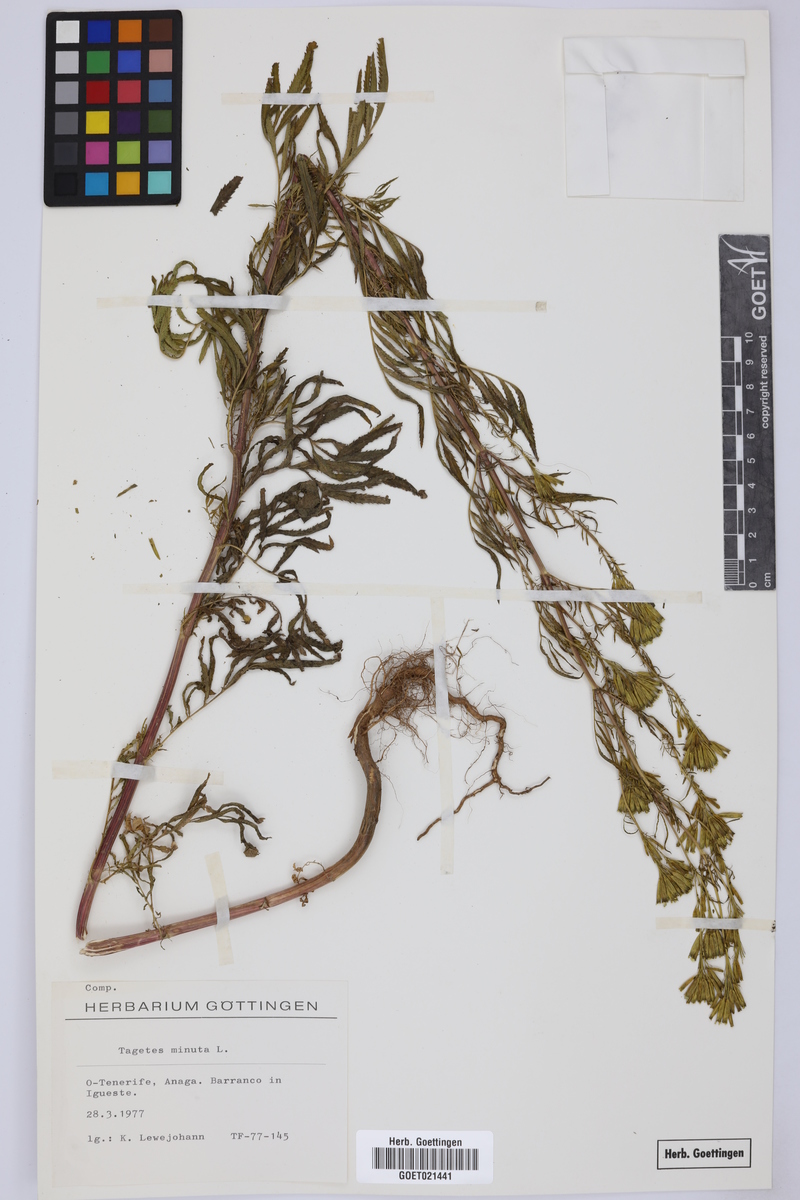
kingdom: Plantae
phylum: Tracheophyta
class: Magnoliopsida
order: Asterales
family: Asteraceae
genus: Tagetes
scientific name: Tagetes minuta
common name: Muster john henry
